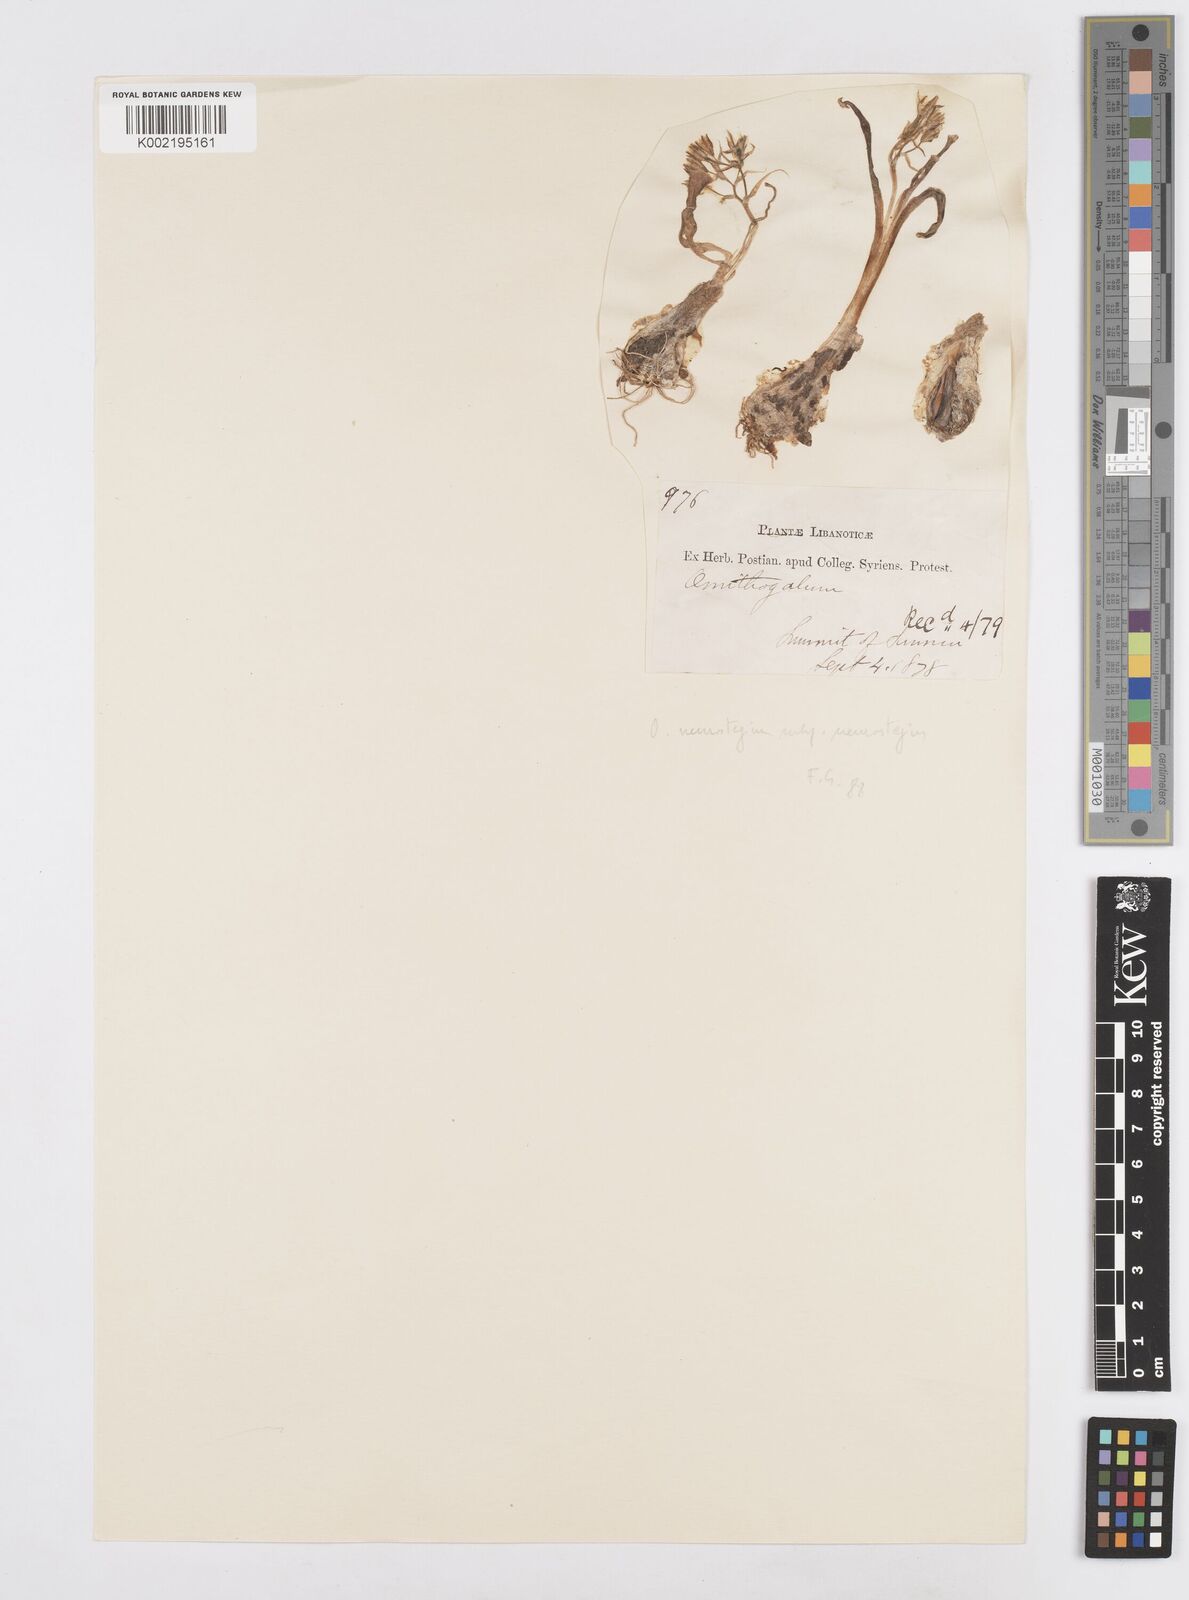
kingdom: Plantae
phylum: Tracheophyta
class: Liliopsida
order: Asparagales
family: Asparagaceae
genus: Ornithogalum
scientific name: Ornithogalum neurostegium
